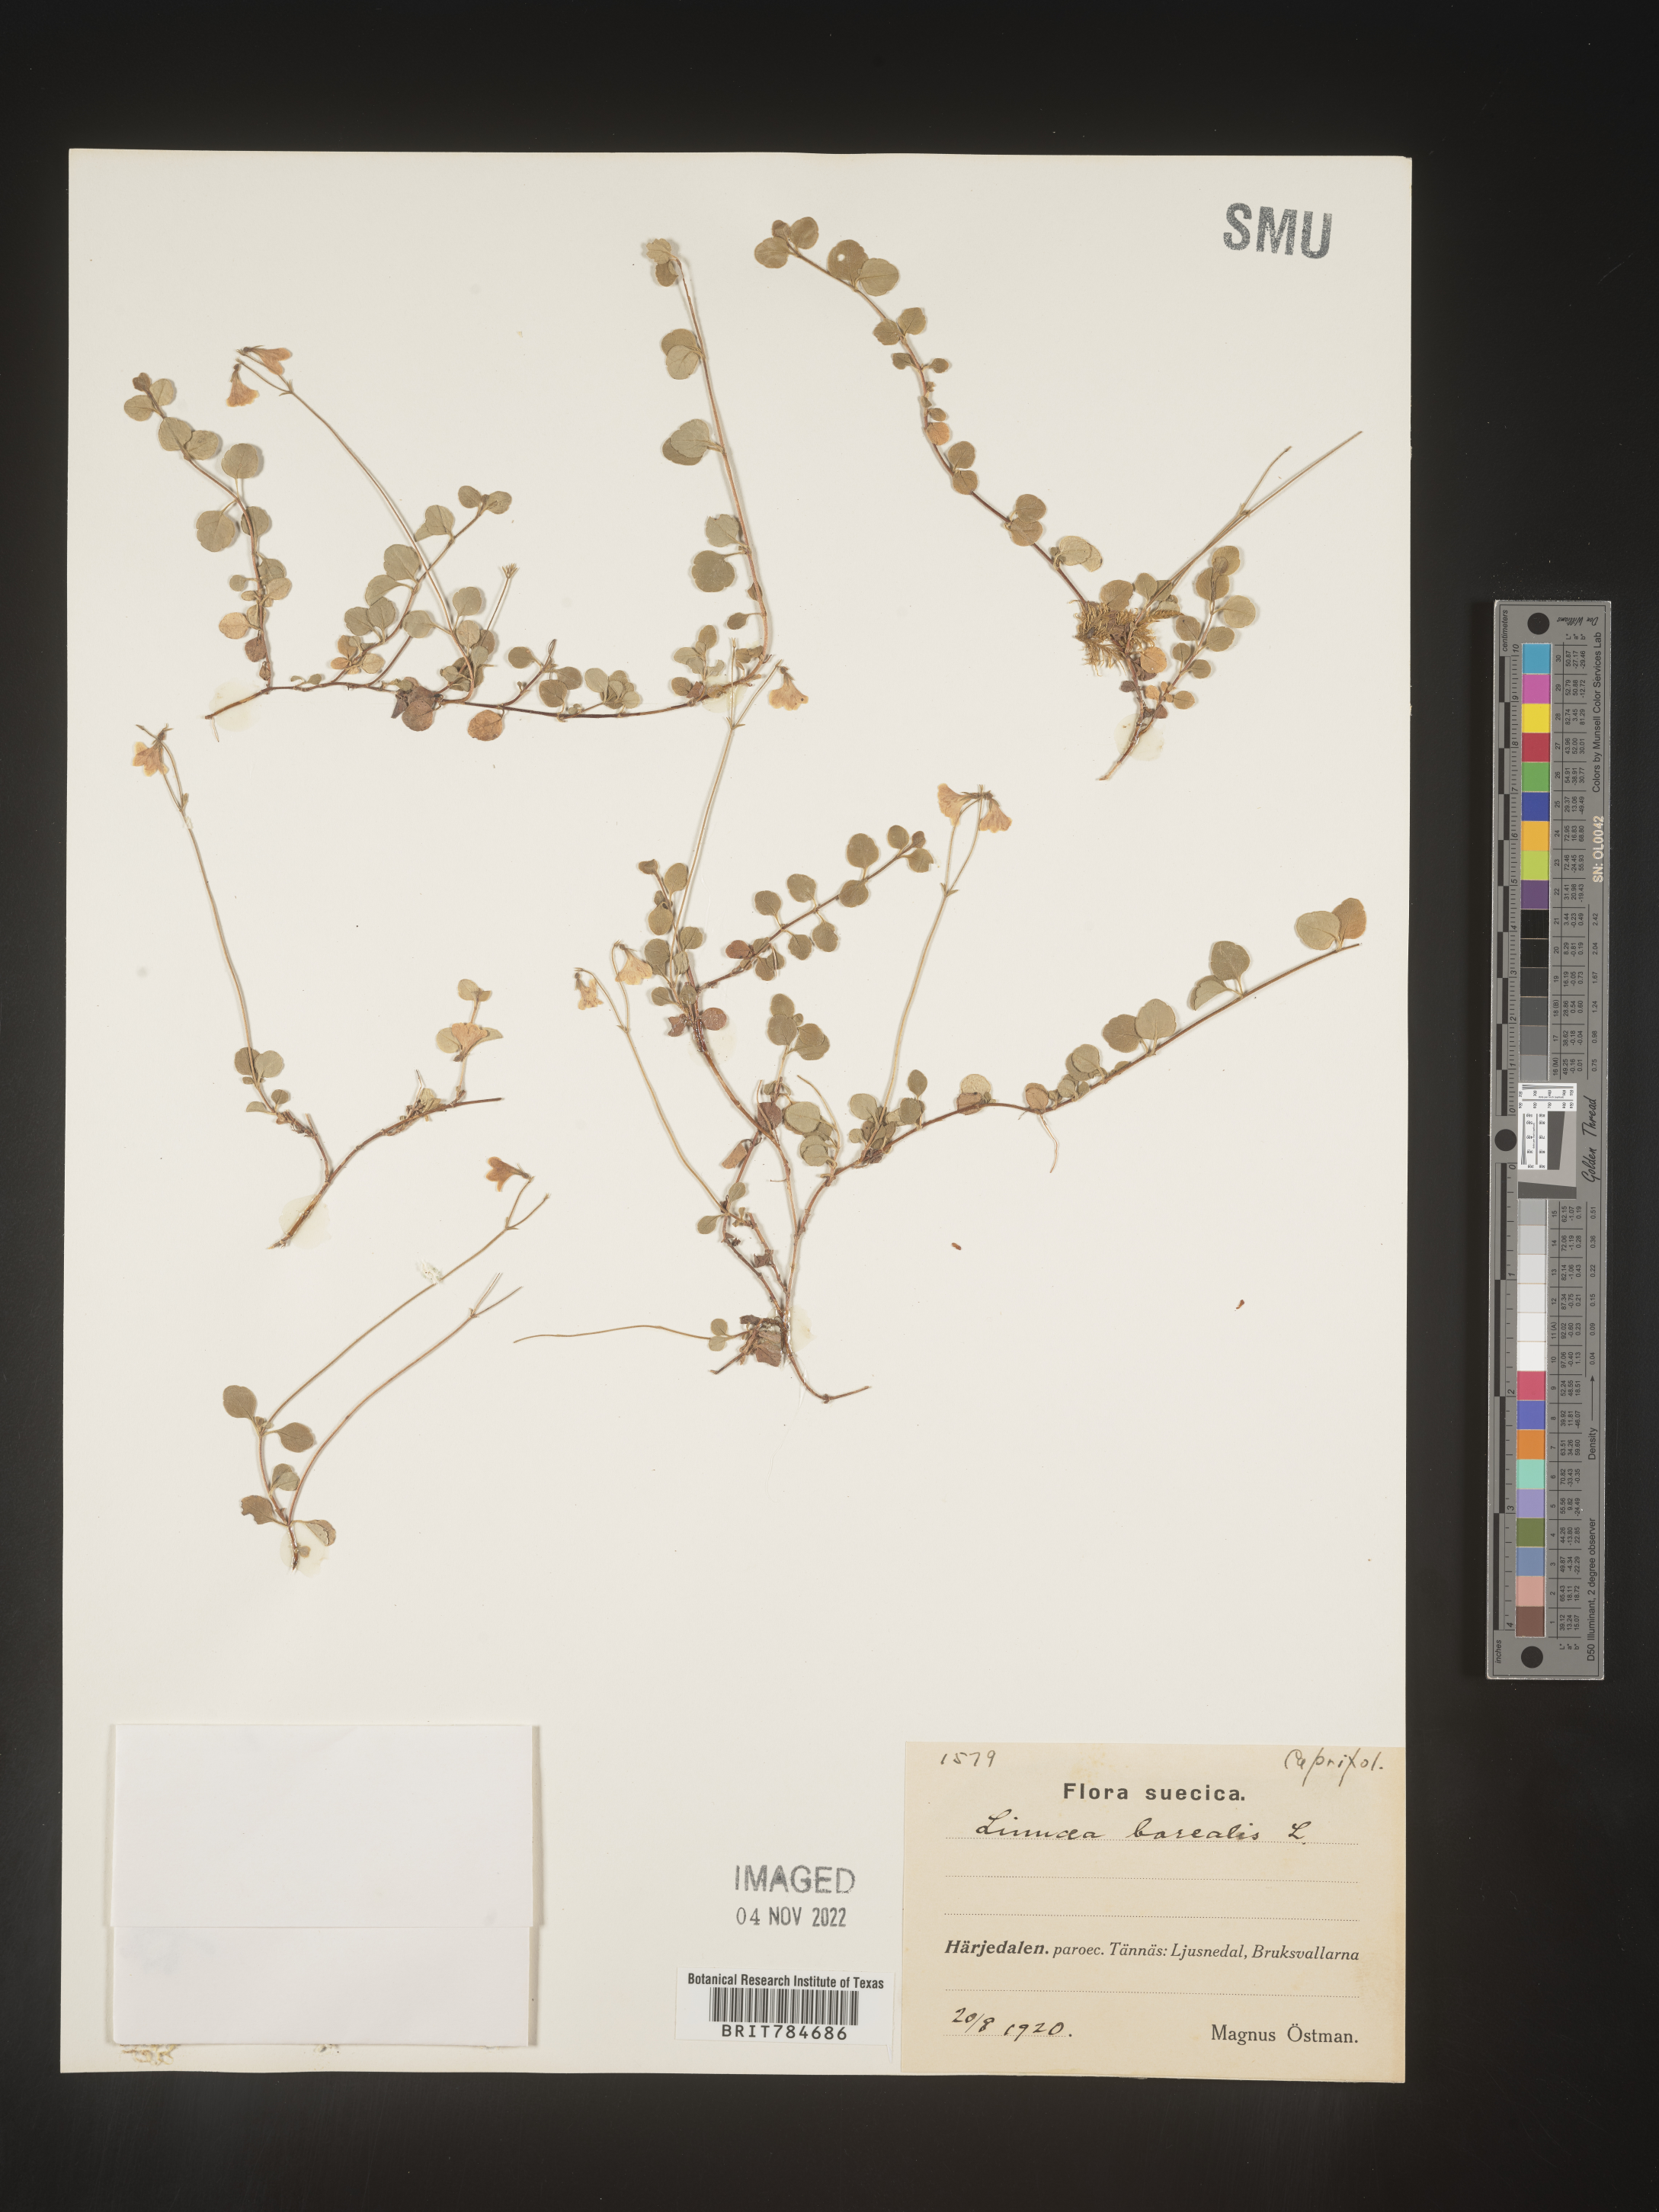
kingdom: Plantae
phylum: Tracheophyta
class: Magnoliopsida
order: Dipsacales
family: Caprifoliaceae
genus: Linnaea
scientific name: Linnaea
